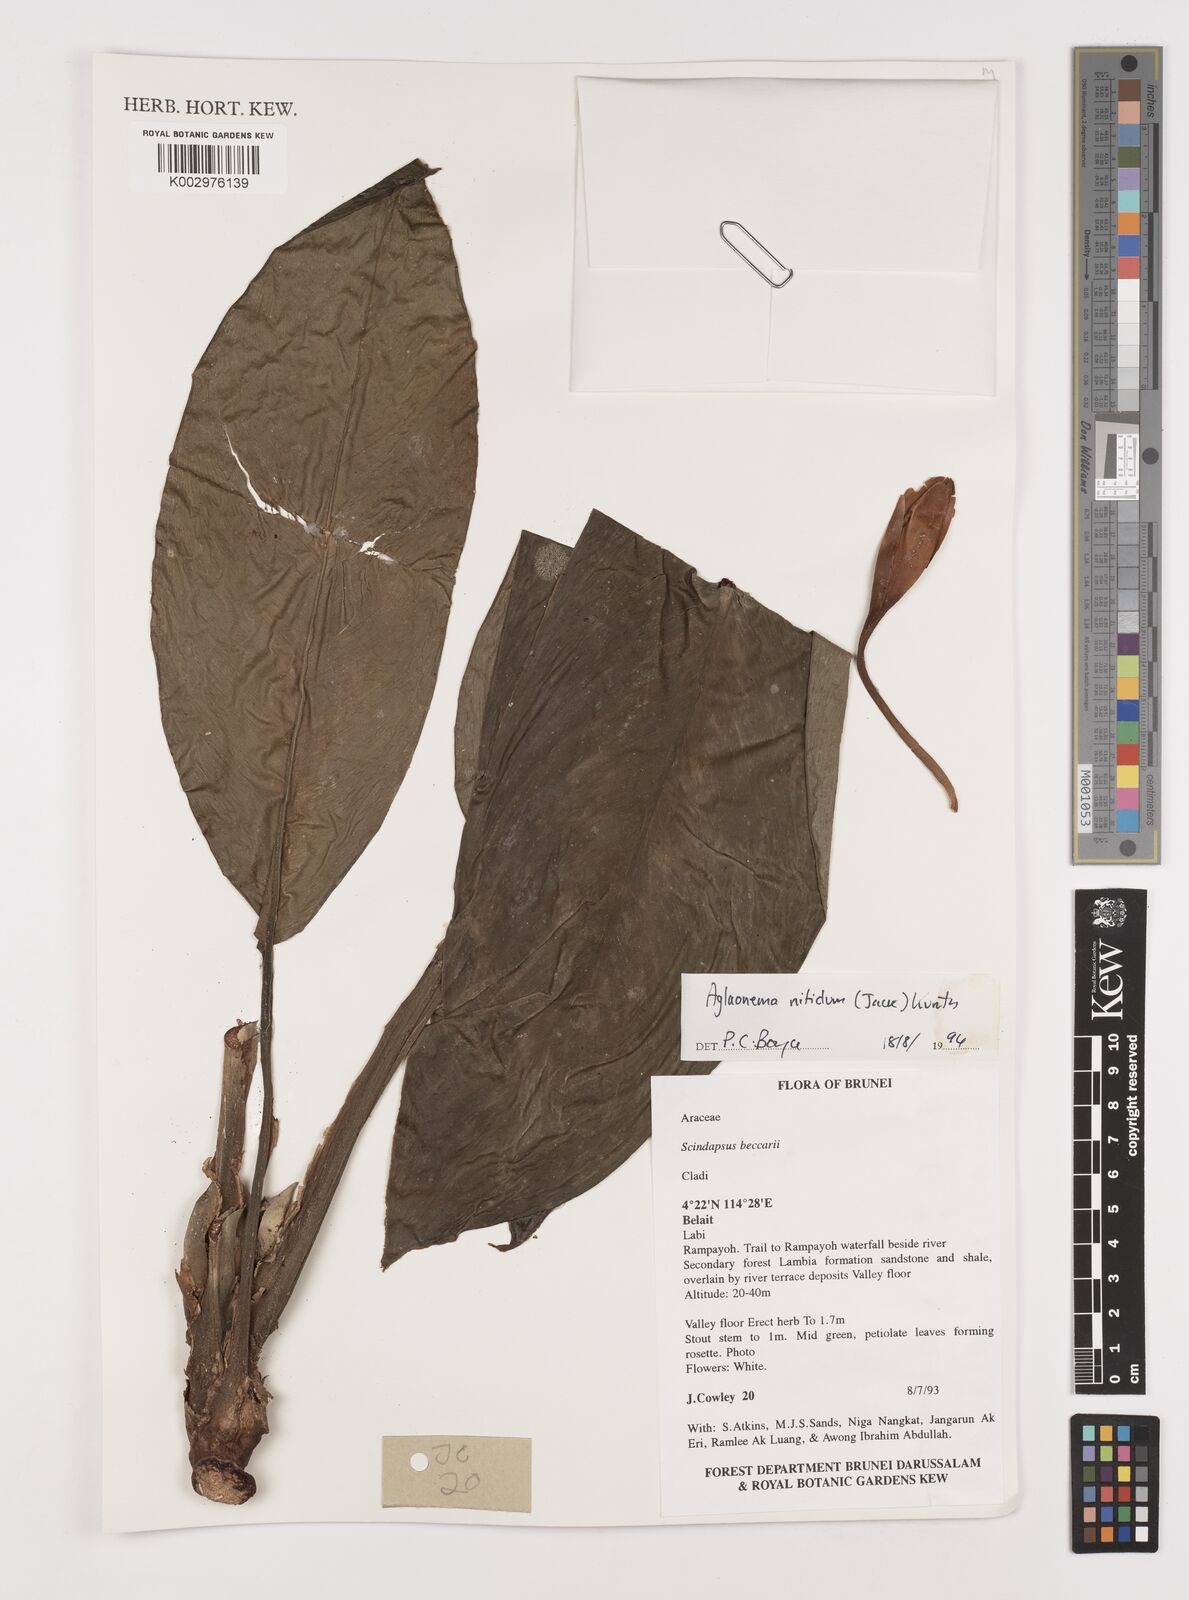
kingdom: Plantae
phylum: Tracheophyta
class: Liliopsida
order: Alismatales
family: Araceae
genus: Aglaonema
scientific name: Aglaonema nitidum
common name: Aglaonema aroid
